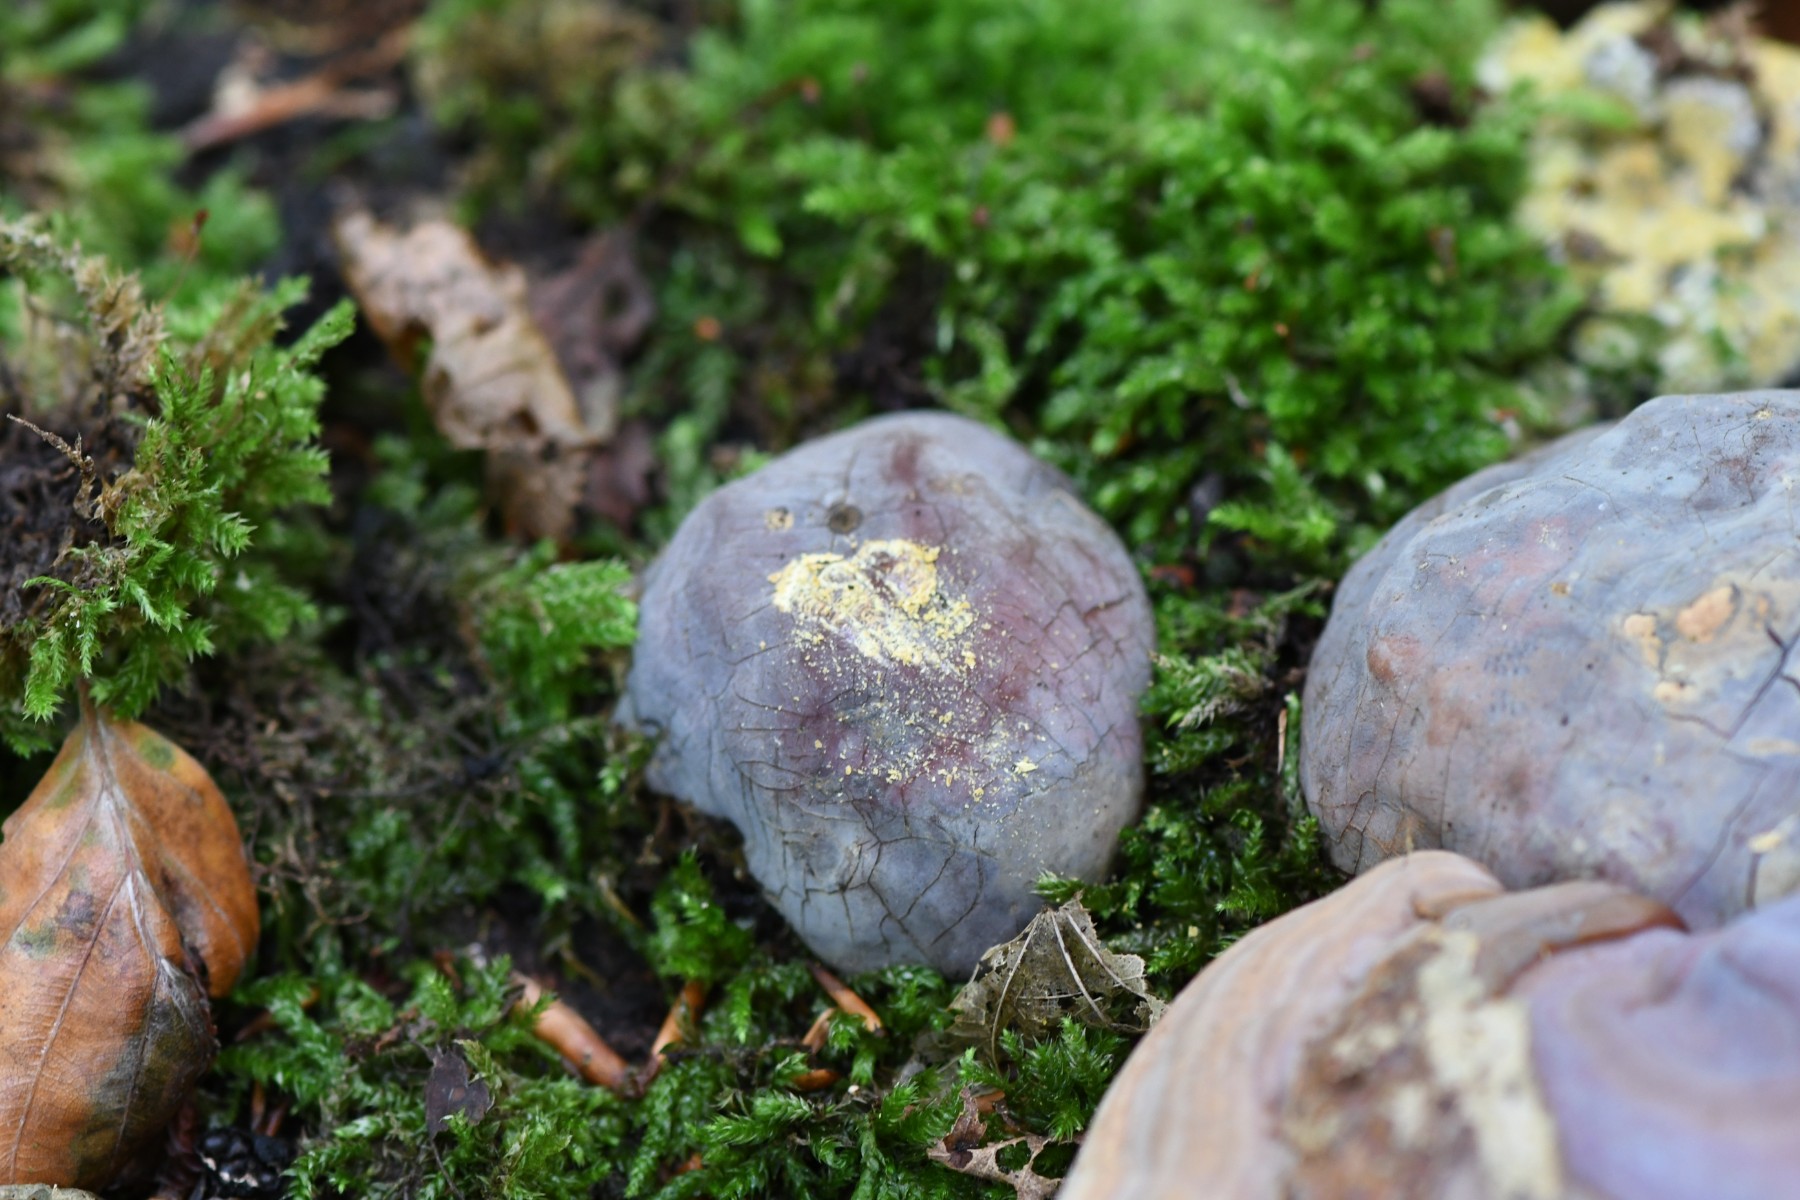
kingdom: Fungi
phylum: Basidiomycota
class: Agaricomycetes
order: Polyporales
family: Polyporaceae
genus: Ganoderma
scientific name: Ganoderma pfeifferi
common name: kobberrød lakporesvamp
